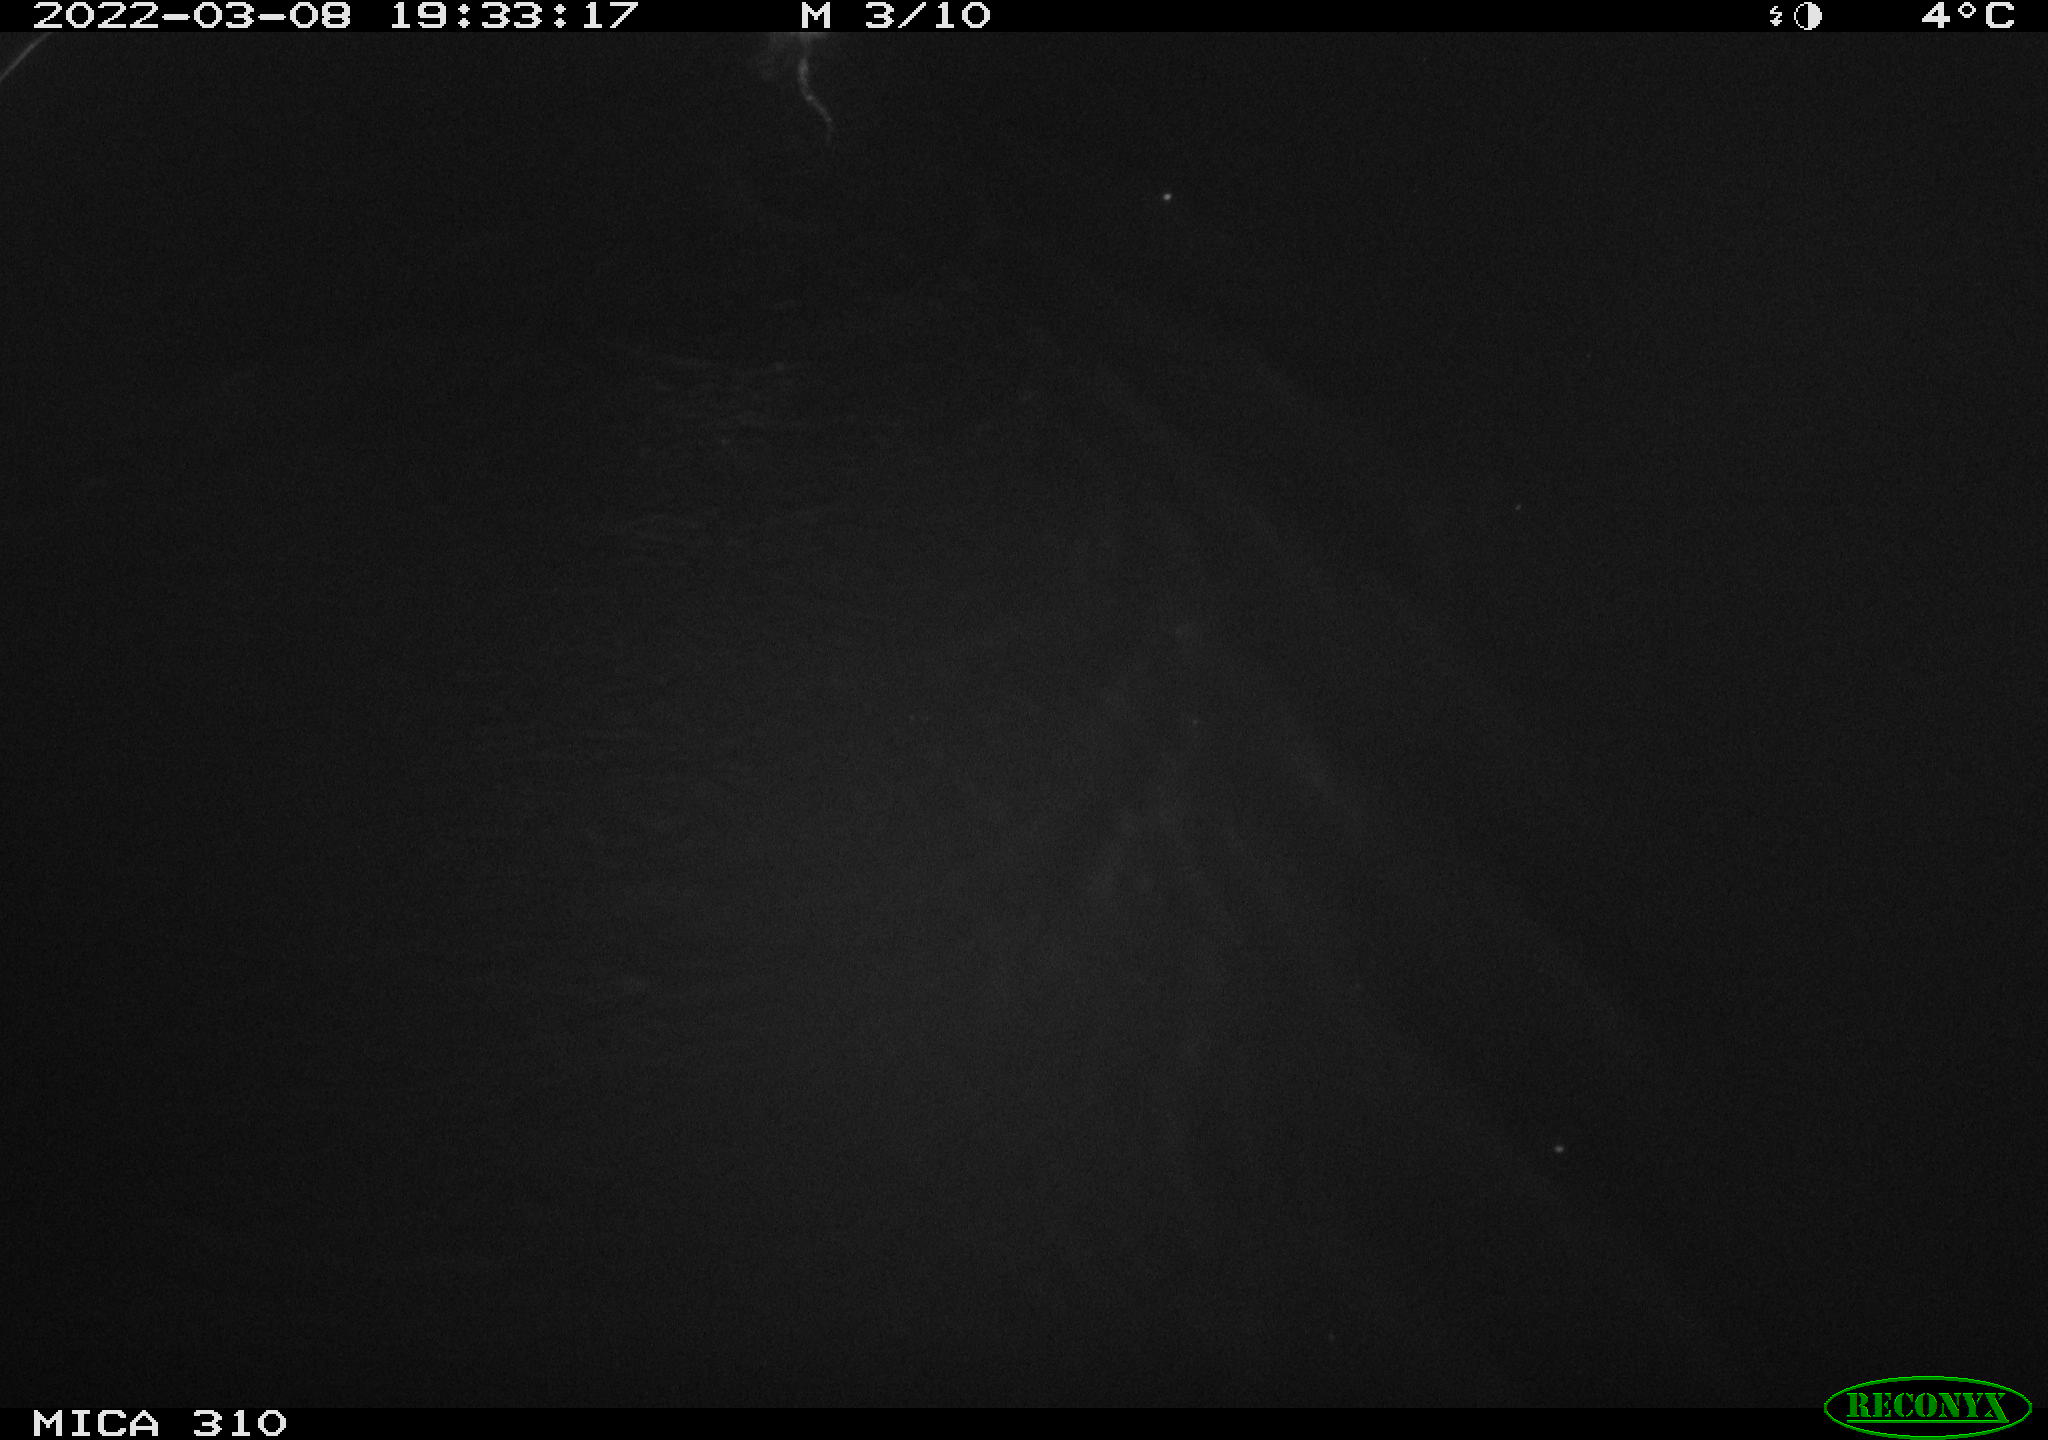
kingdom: Animalia
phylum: Chordata
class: Mammalia
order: Rodentia
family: Cricetidae
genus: Ondatra
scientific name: Ondatra zibethicus
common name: Muskrat
